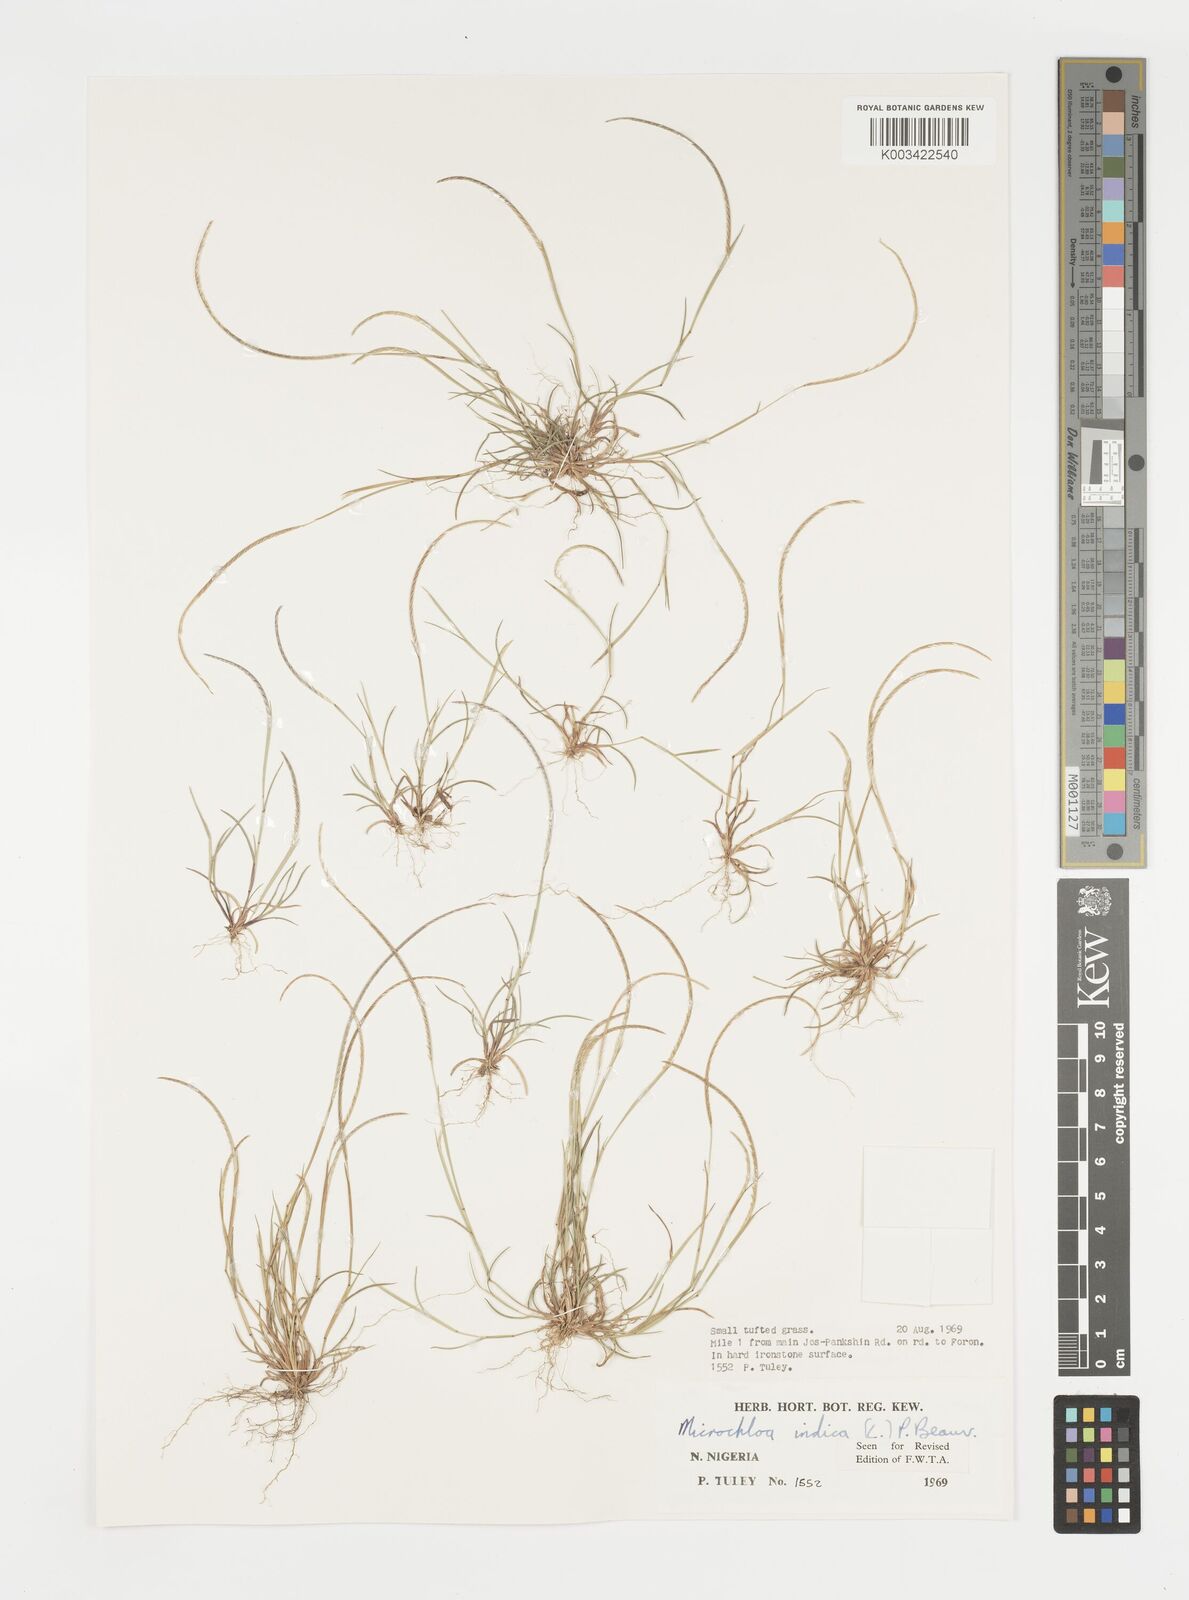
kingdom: Plantae
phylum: Tracheophyta
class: Liliopsida
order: Poales
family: Poaceae
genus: Microchloa
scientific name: Microchloa indica
